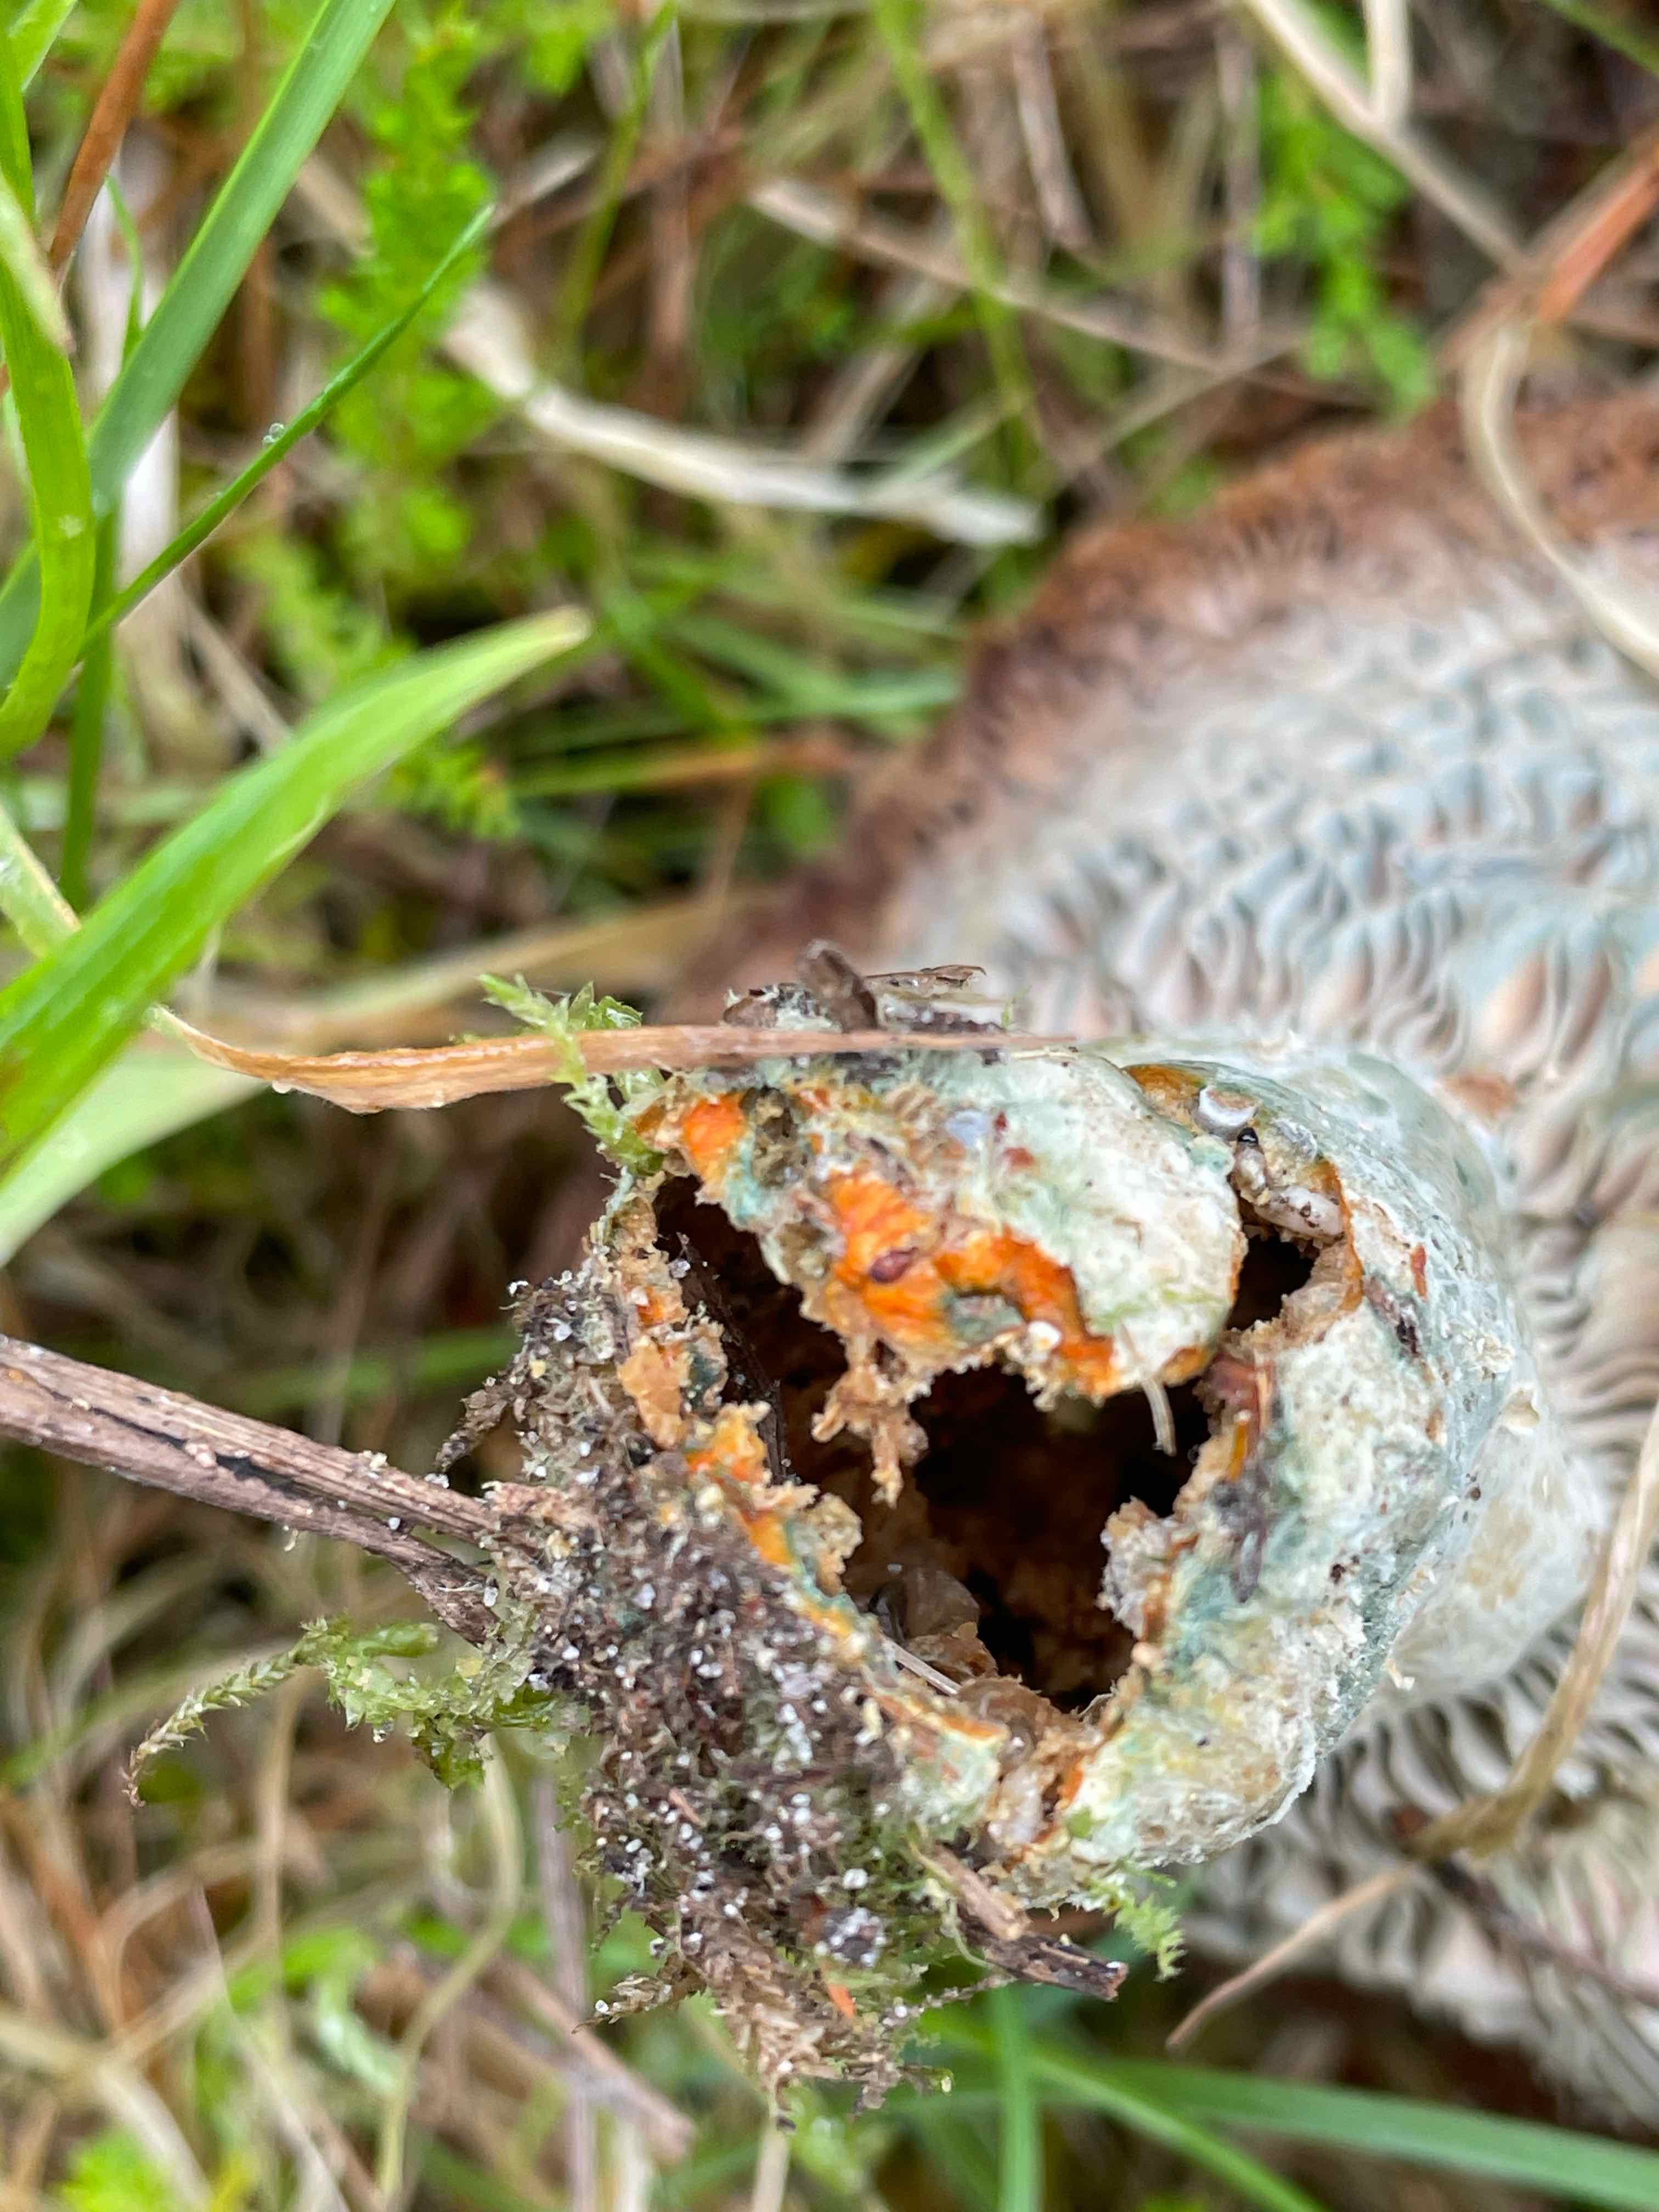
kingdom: Fungi
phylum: Basidiomycota
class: Agaricomycetes
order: Russulales
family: Russulaceae
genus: Lactarius
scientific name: Lactarius
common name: mælkehat
